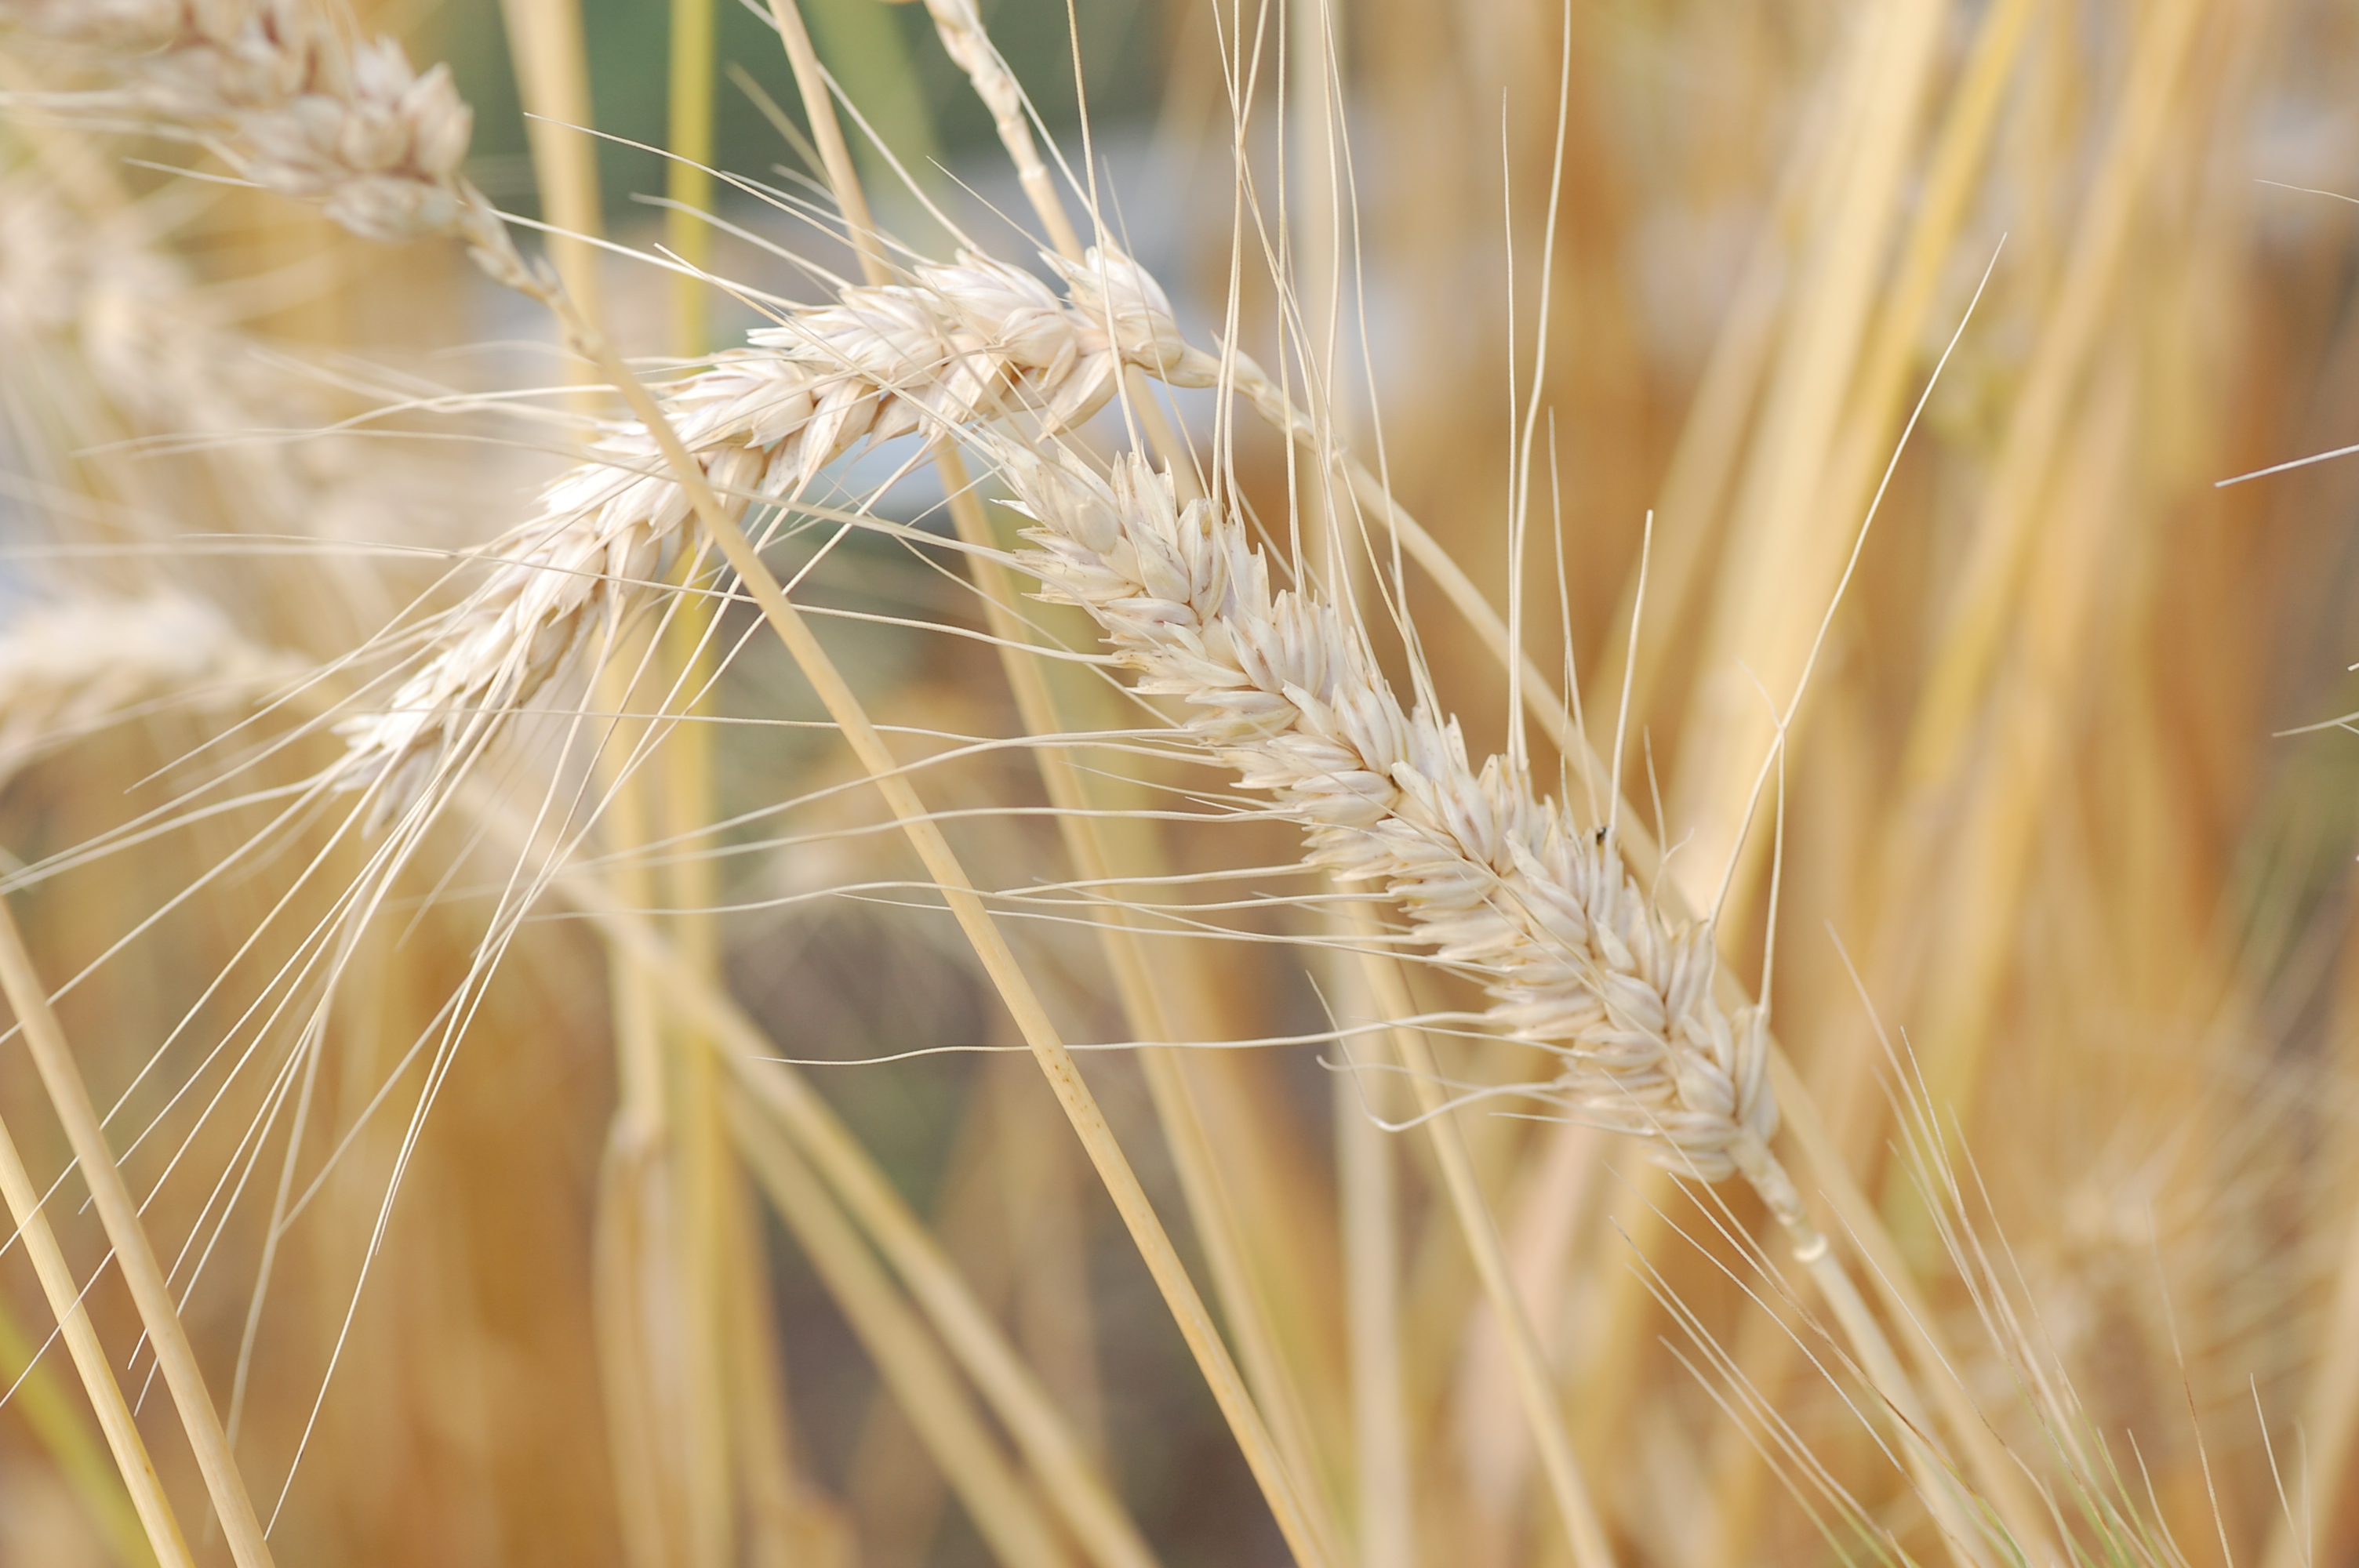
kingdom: Plantae
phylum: Tracheophyta
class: Liliopsida
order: Poales
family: Poaceae
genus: Triticum
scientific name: Triticum aestivum
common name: Common wheat
